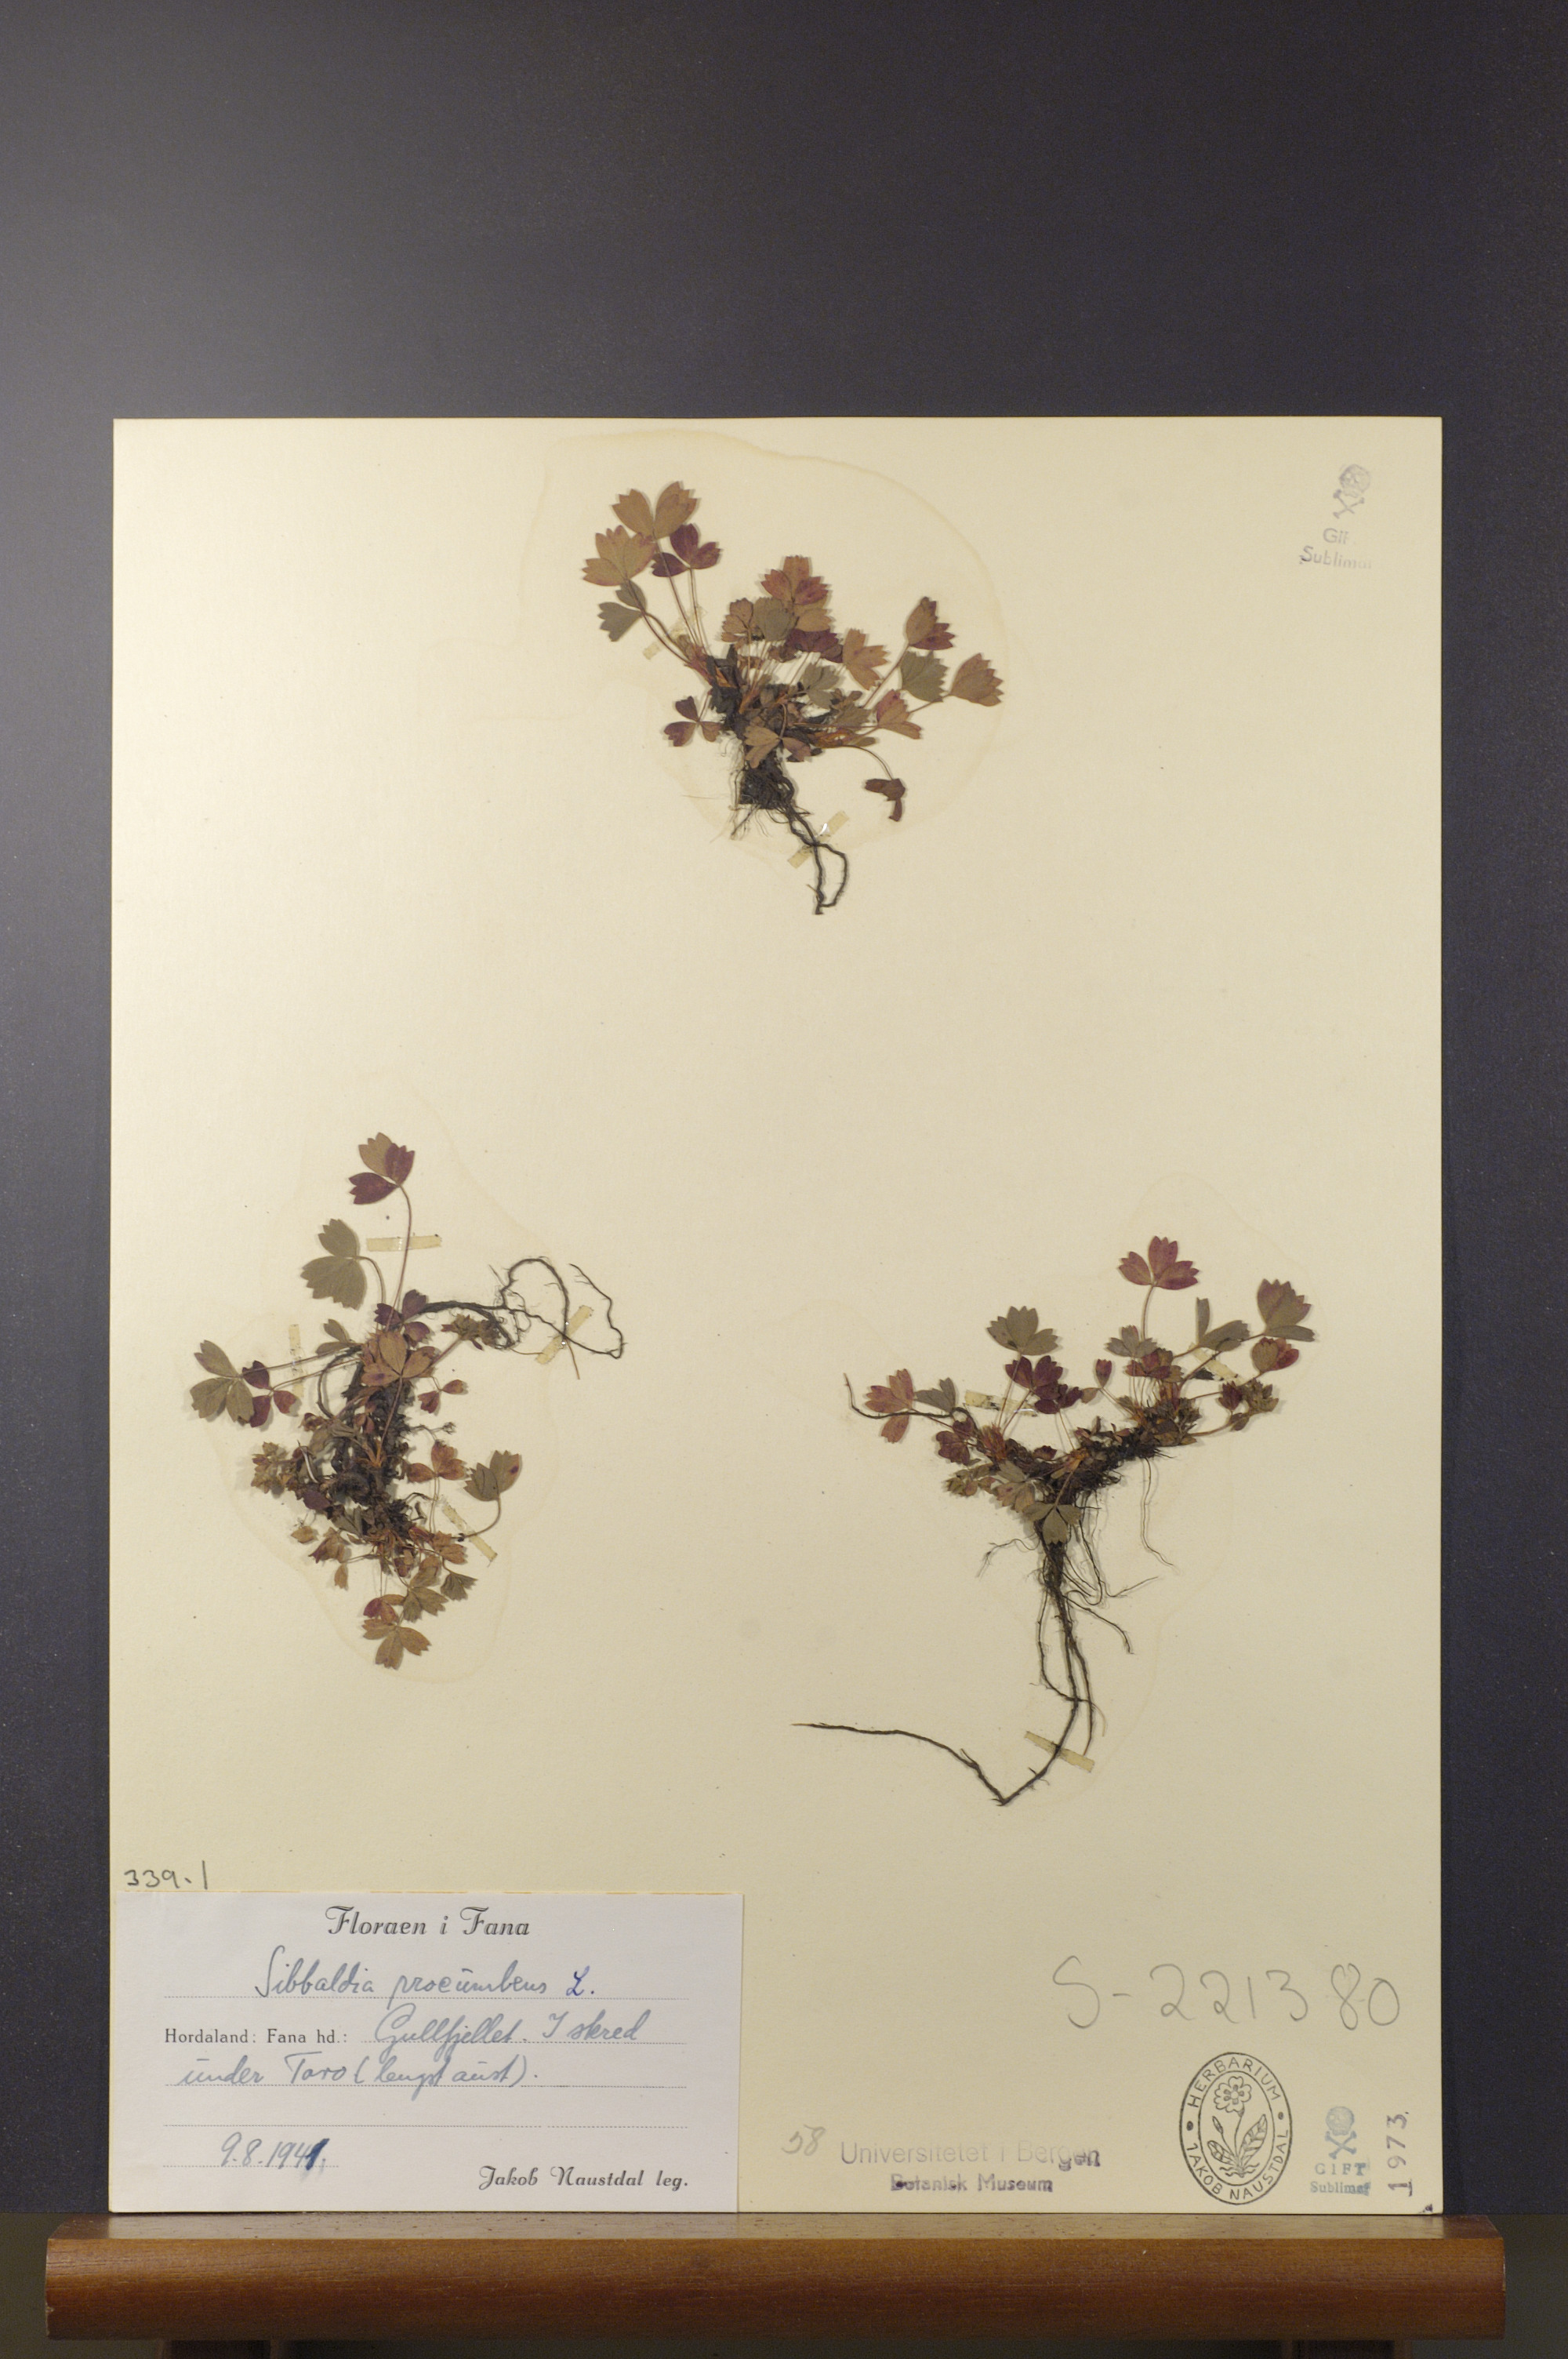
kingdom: Plantae
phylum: Tracheophyta
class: Magnoliopsida
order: Rosales
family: Rosaceae
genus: Sibbaldia
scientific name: Sibbaldia procumbens
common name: Creeping sibbaldia
